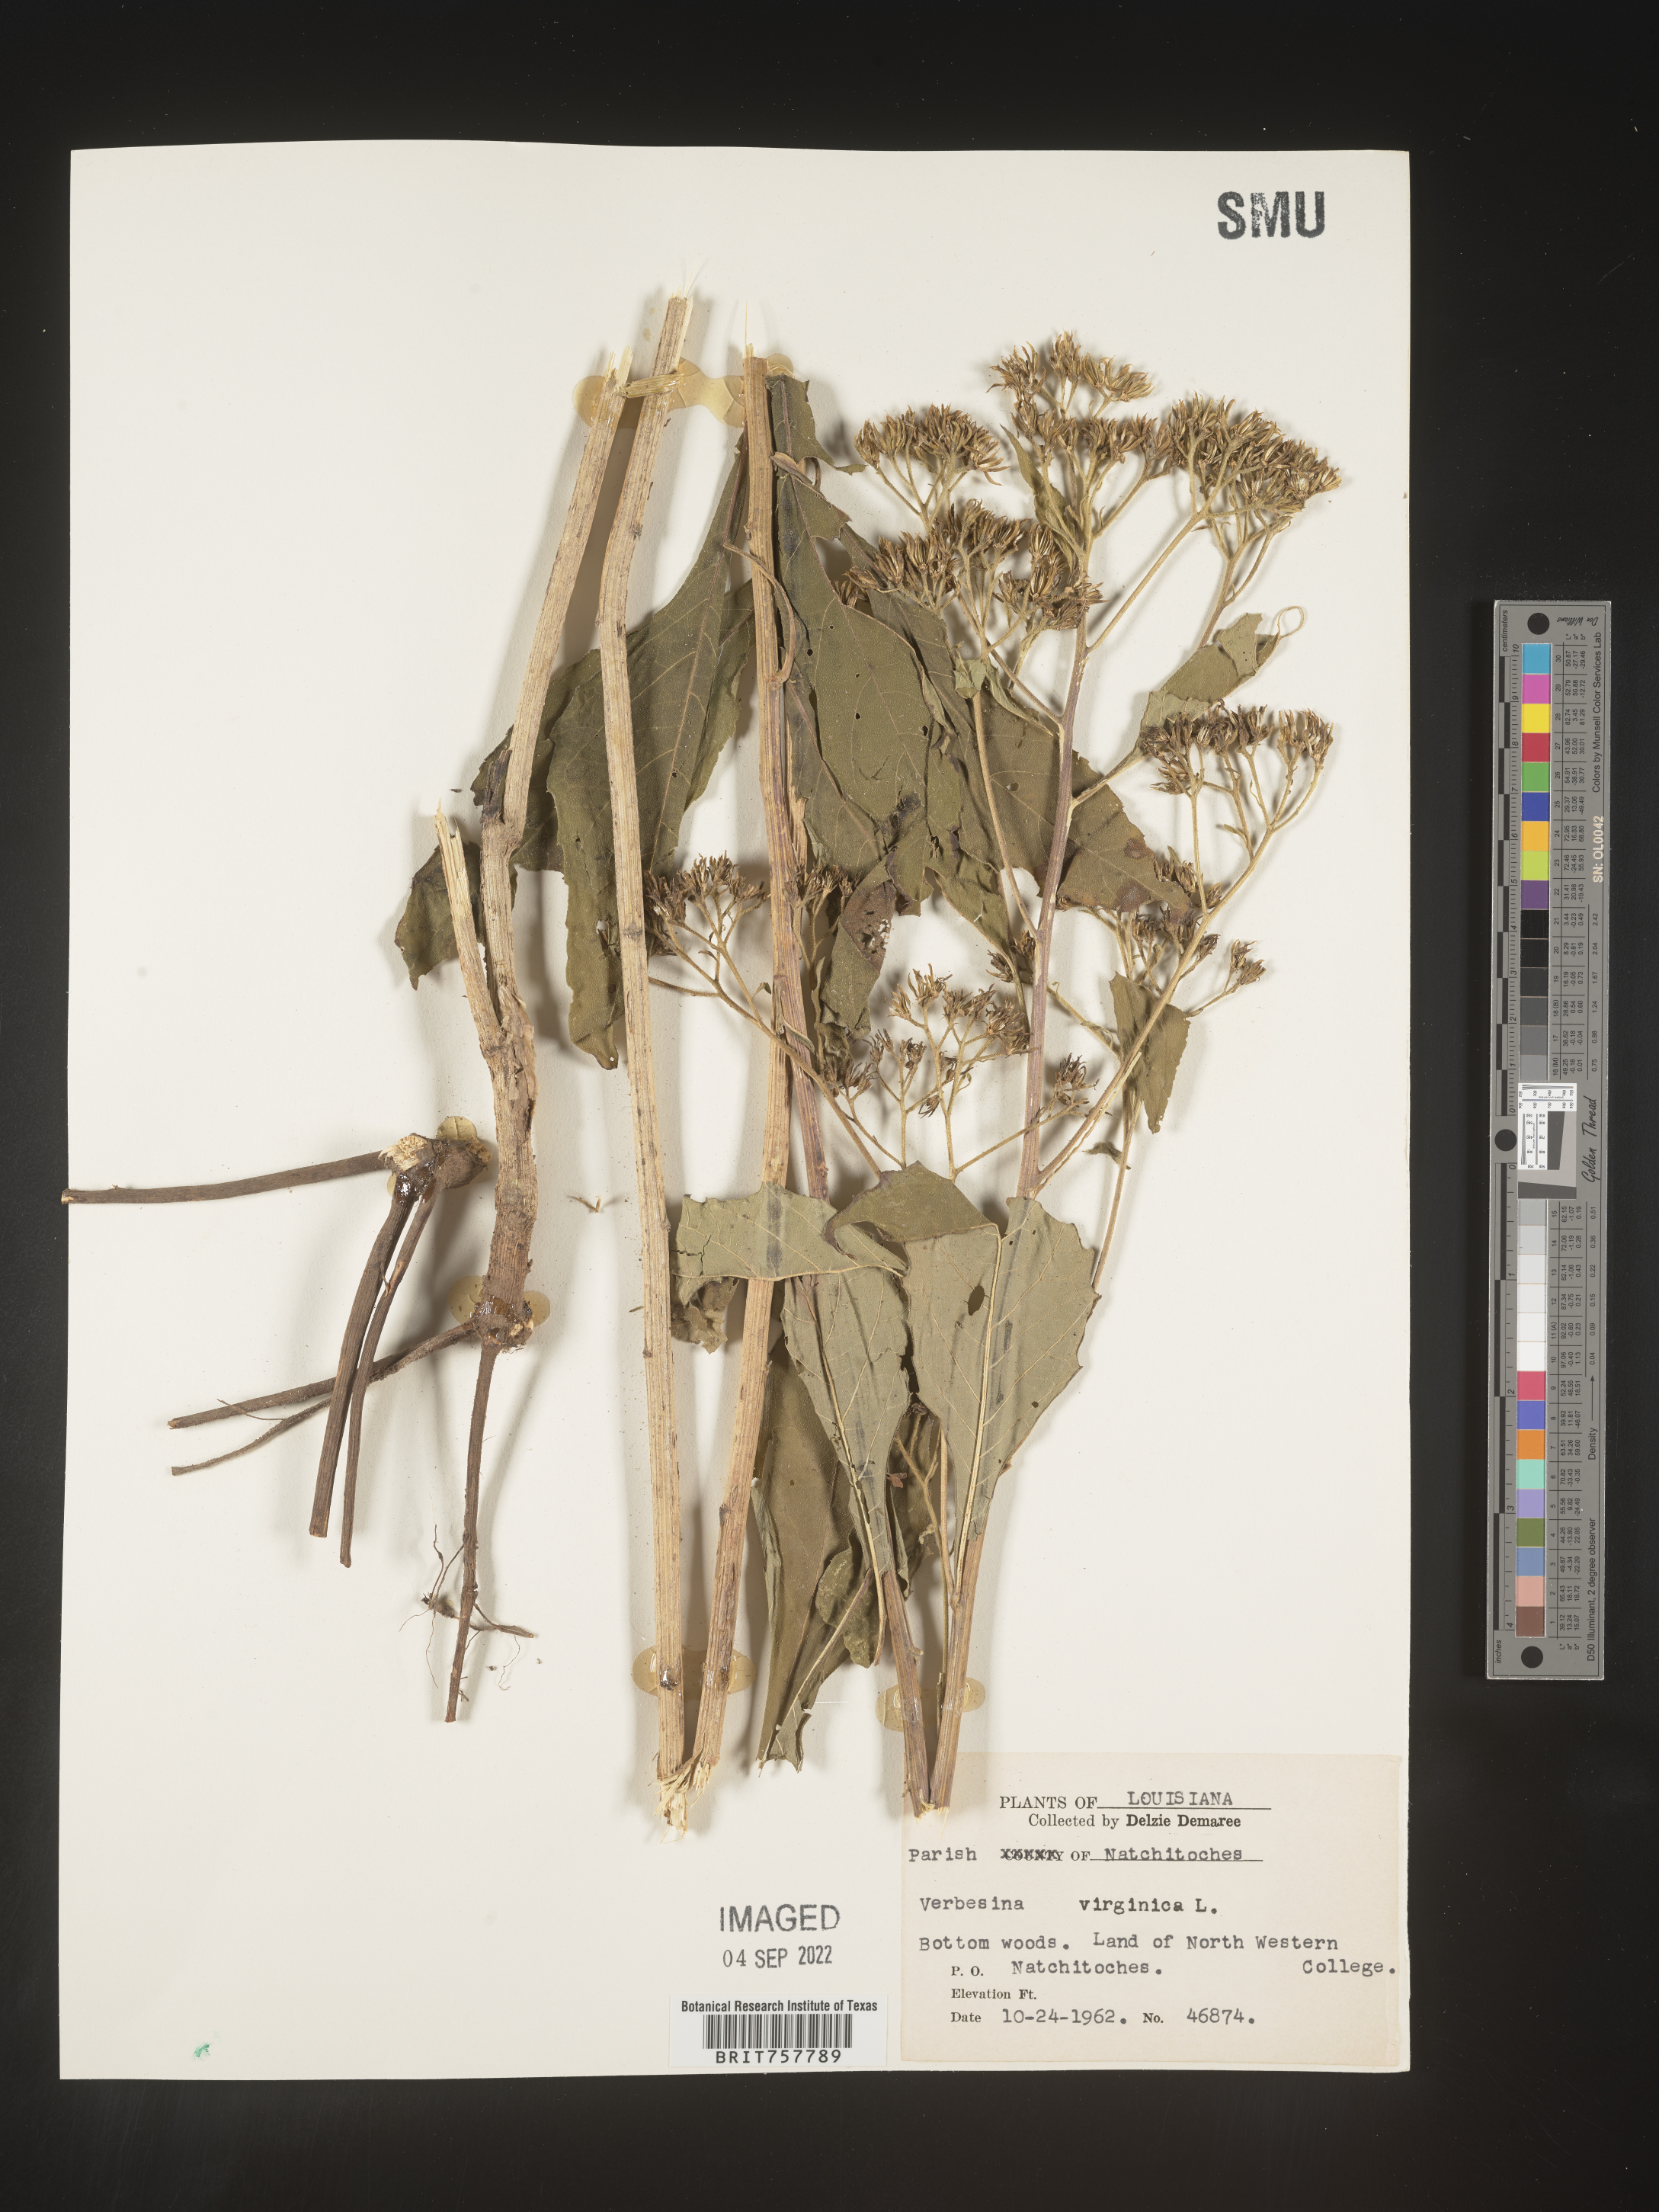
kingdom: Plantae
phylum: Tracheophyta
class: Magnoliopsida
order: Asterales
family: Asteraceae
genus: Verbesina
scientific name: Verbesina virginica
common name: Frostweed
